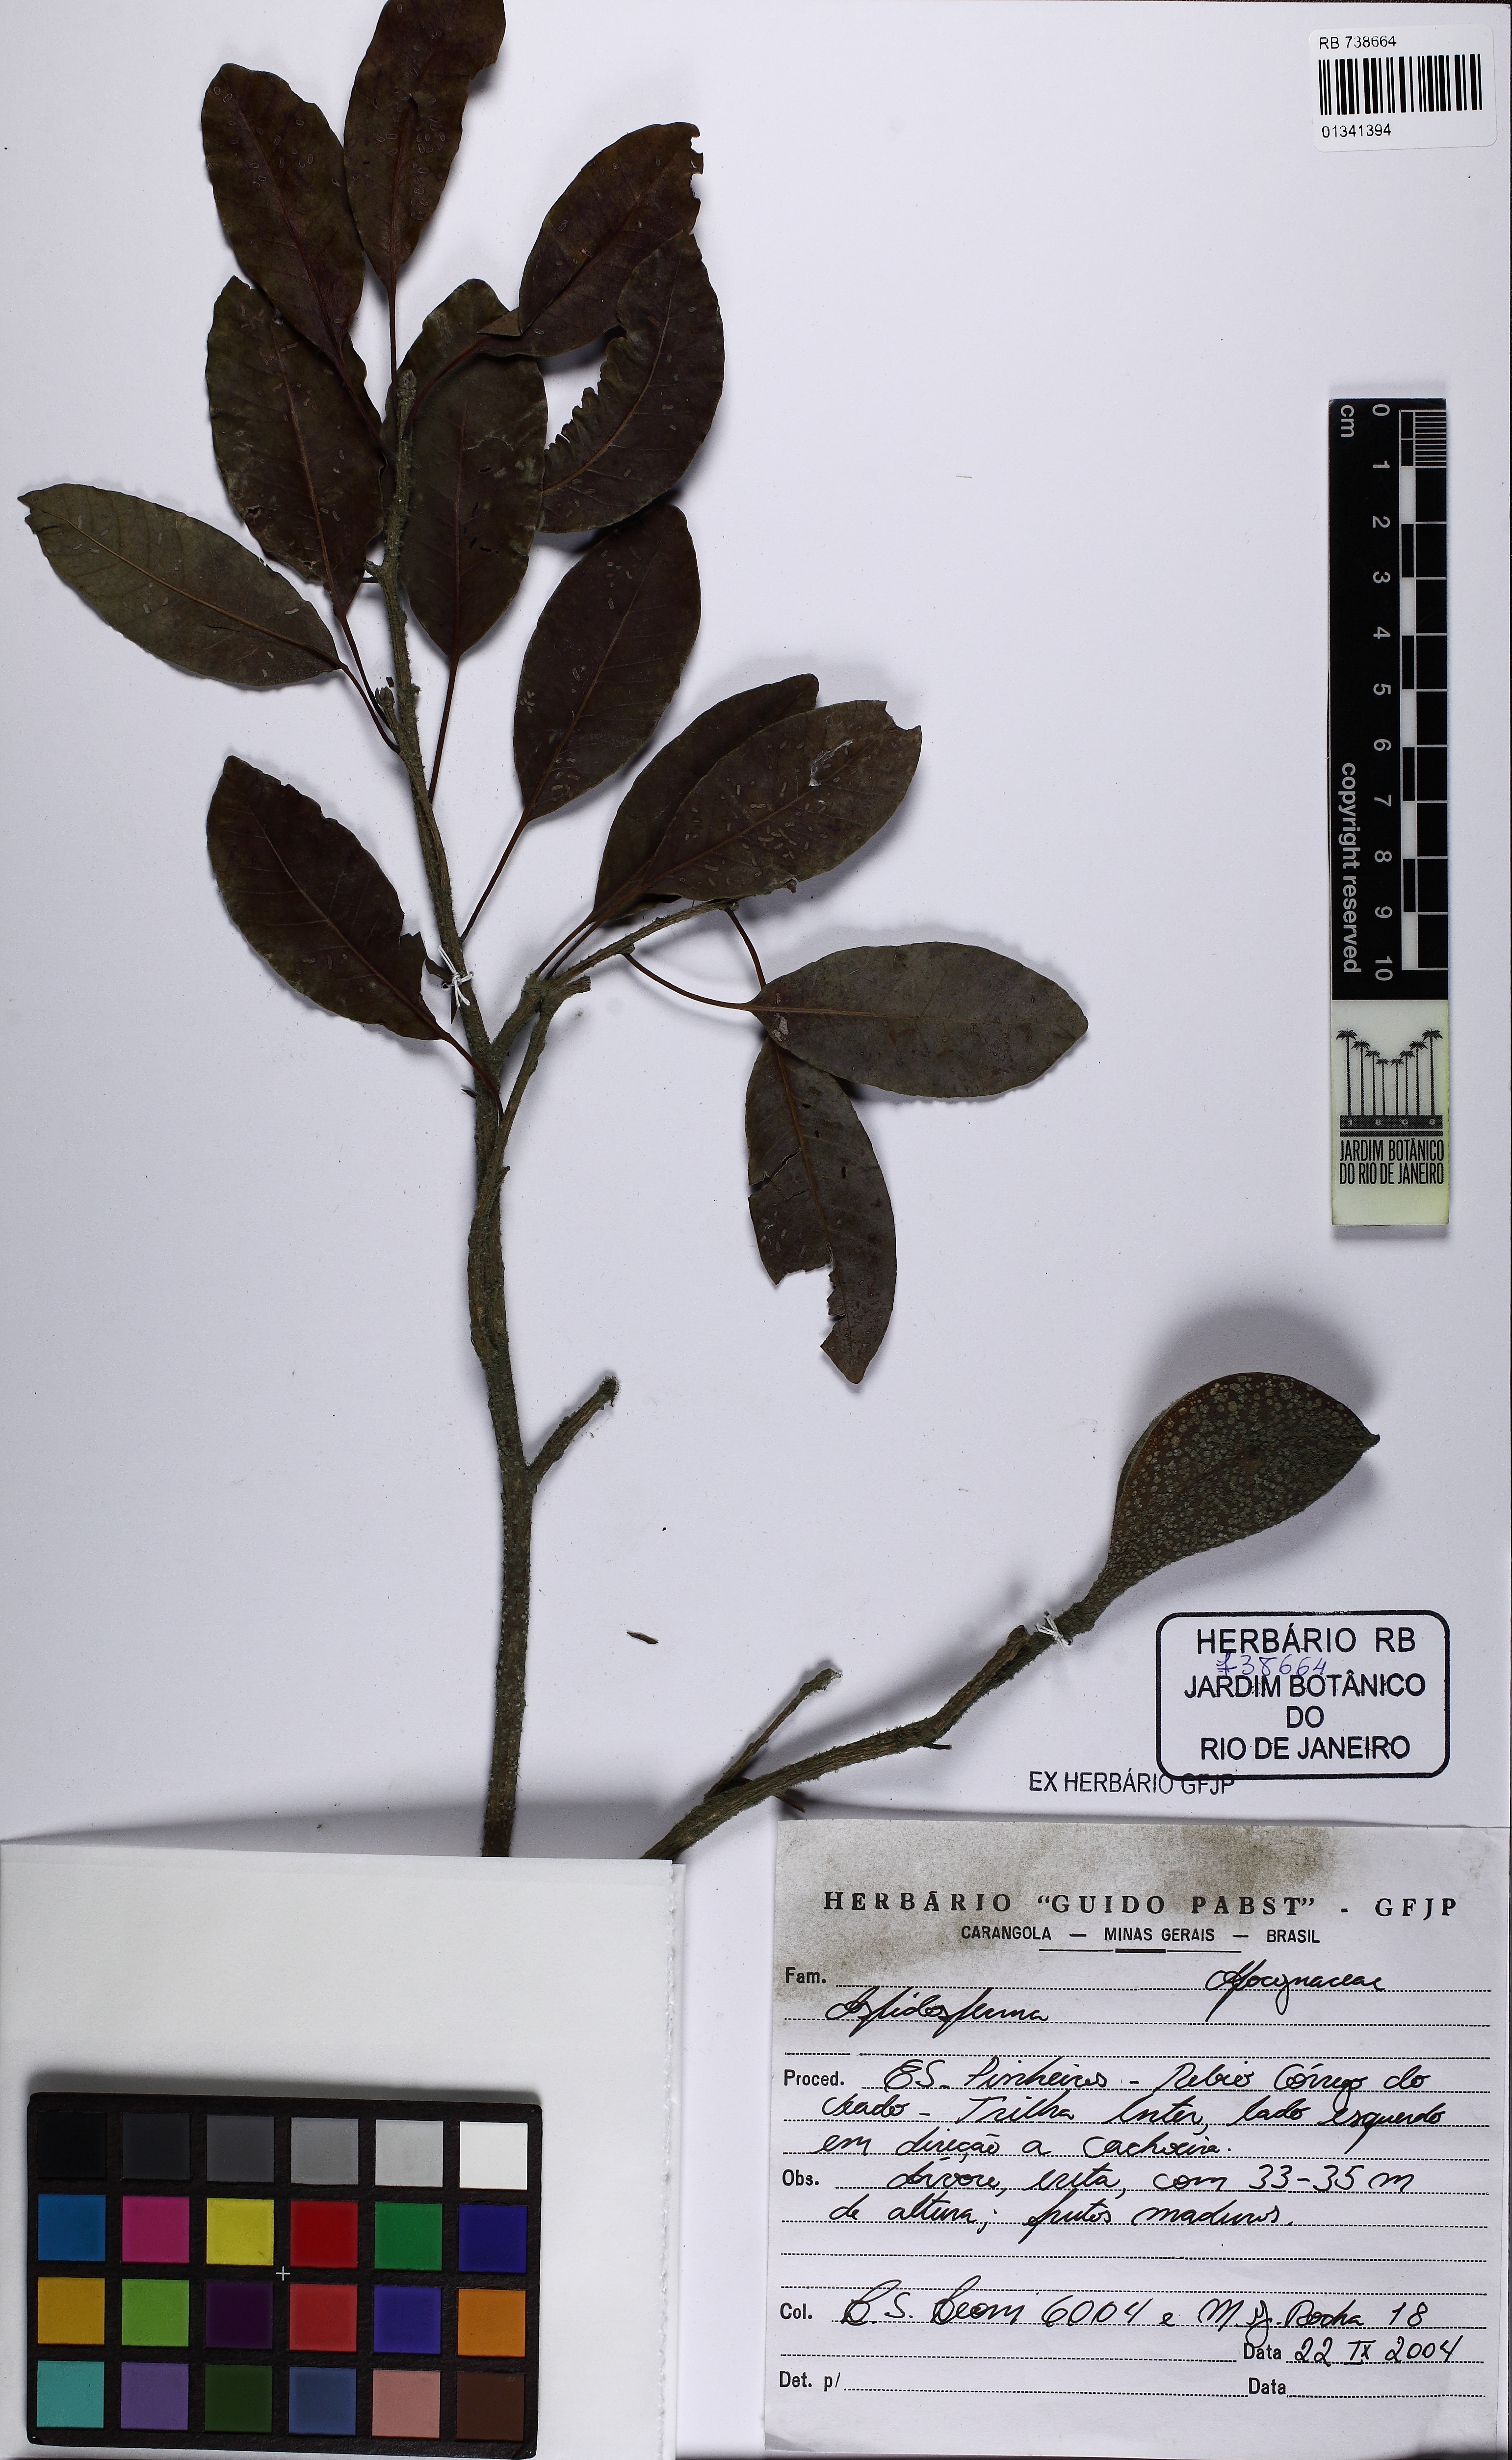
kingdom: Plantae
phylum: Tracheophyta
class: Magnoliopsida
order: Gentianales
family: Apocynaceae
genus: Aspidosperma
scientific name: Aspidosperma pyrifolium
